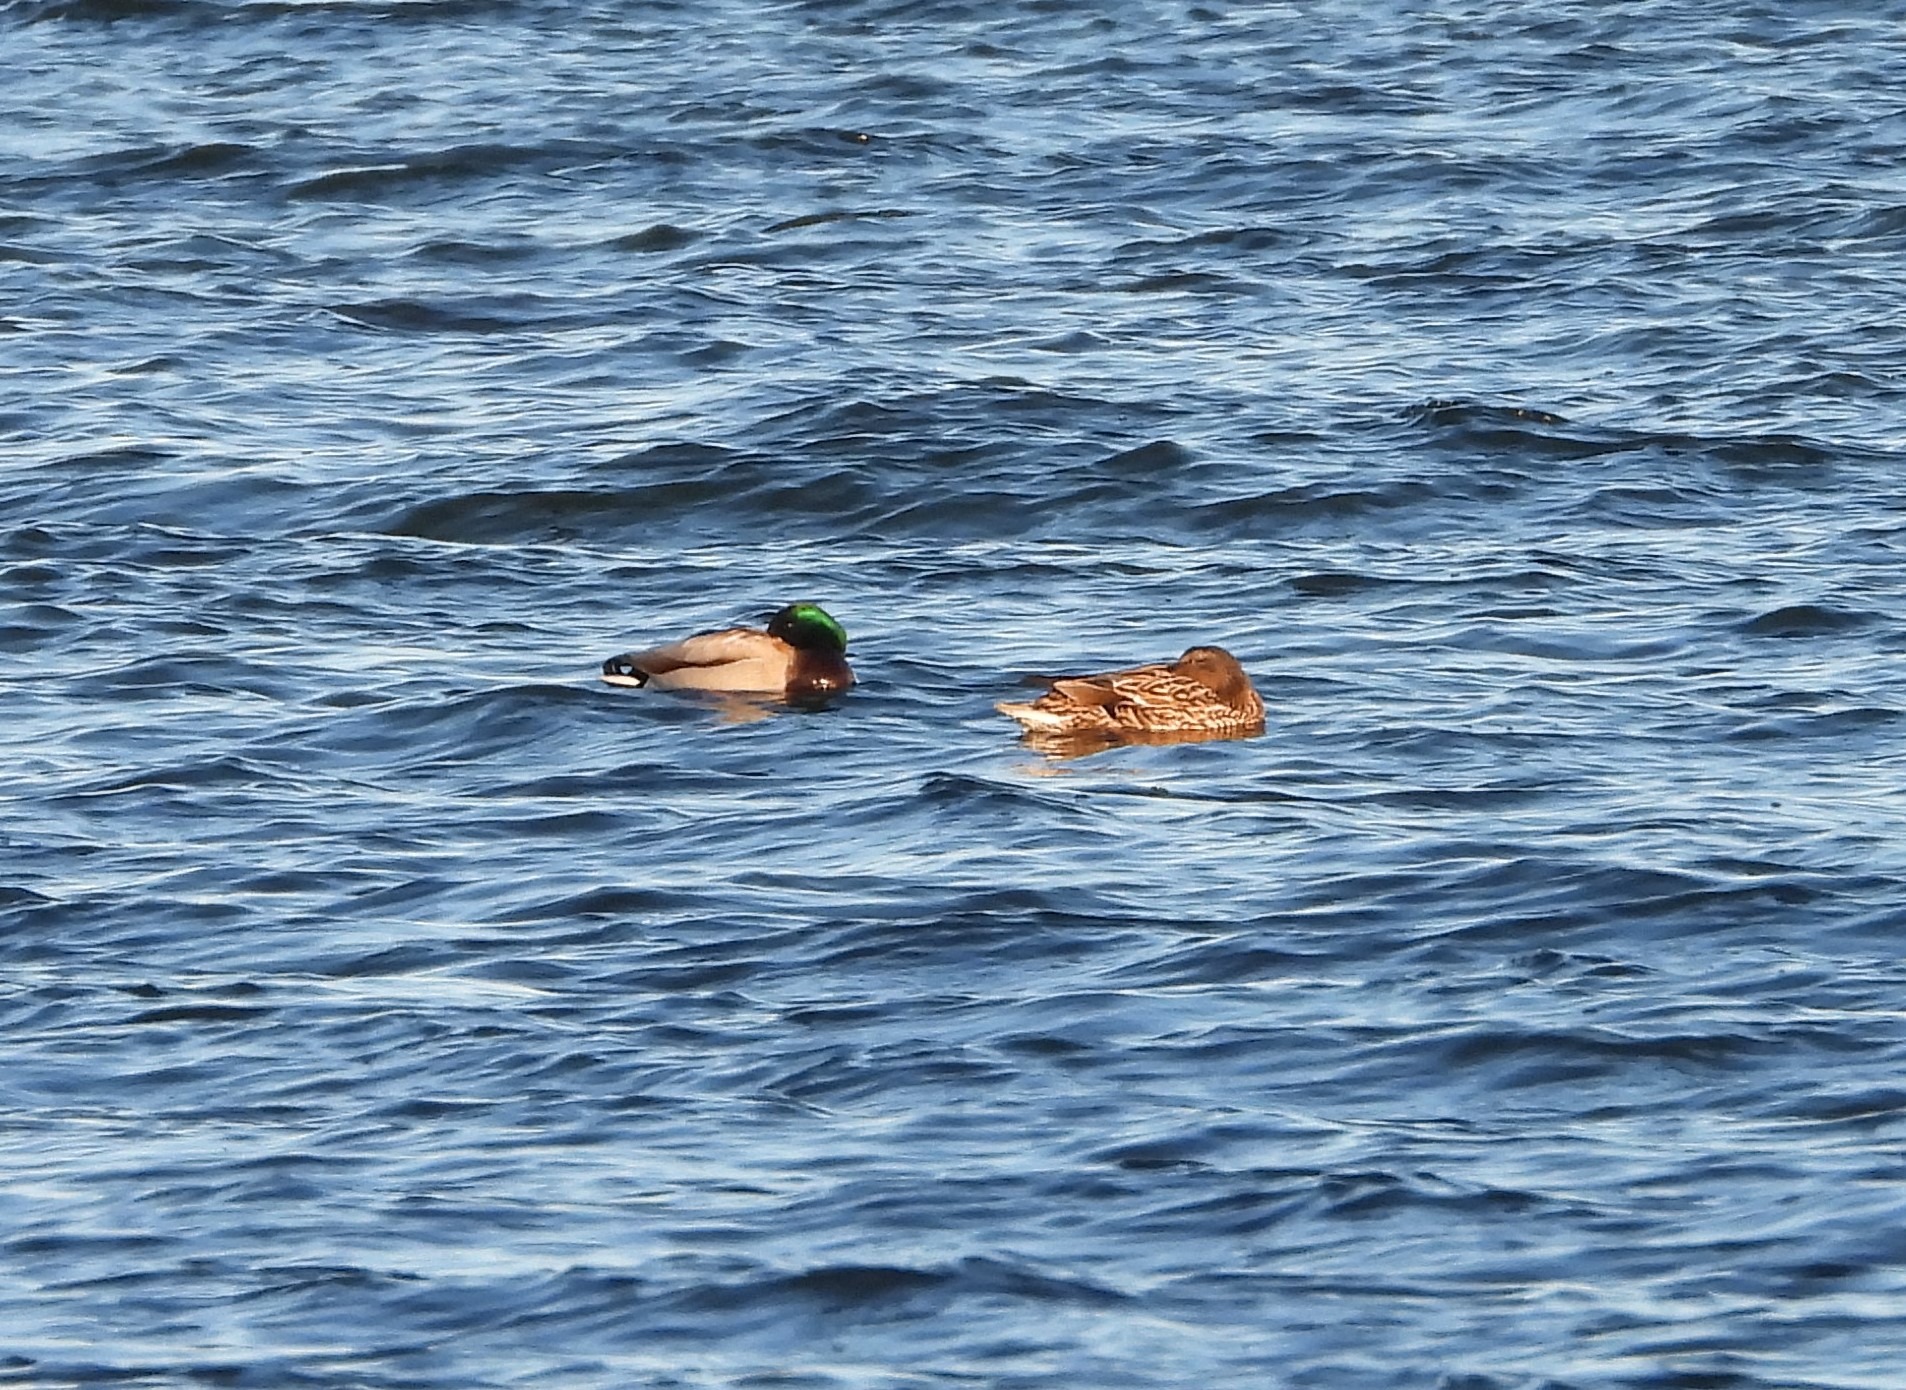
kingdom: Animalia
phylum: Chordata
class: Aves
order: Anseriformes
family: Anatidae
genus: Anas
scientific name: Anas platyrhynchos
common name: Gråand
